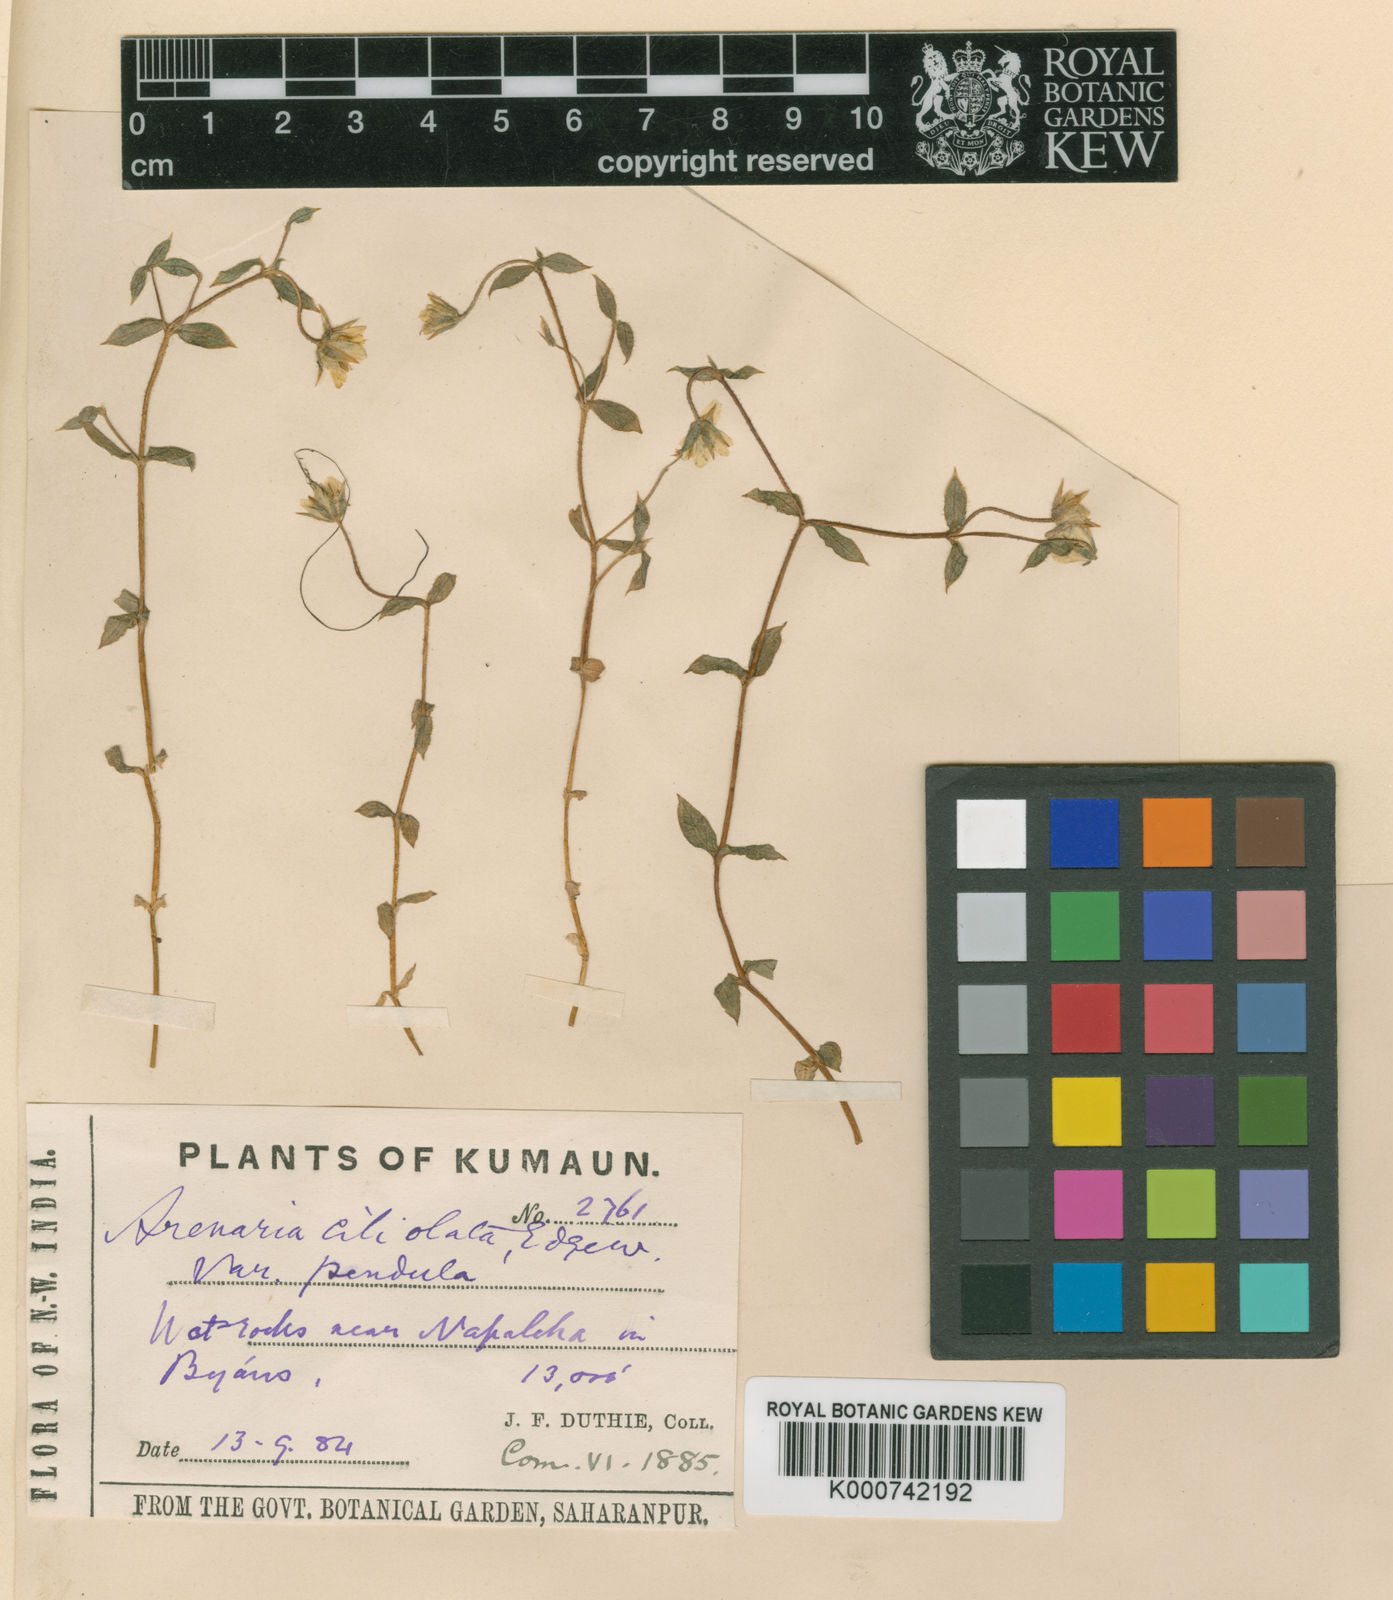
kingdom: Plantae
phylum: Tracheophyta
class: Magnoliopsida
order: Caryophyllales
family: Caryophyllaceae
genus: Shivparvatia
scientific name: Shivparvatia ciliolata
